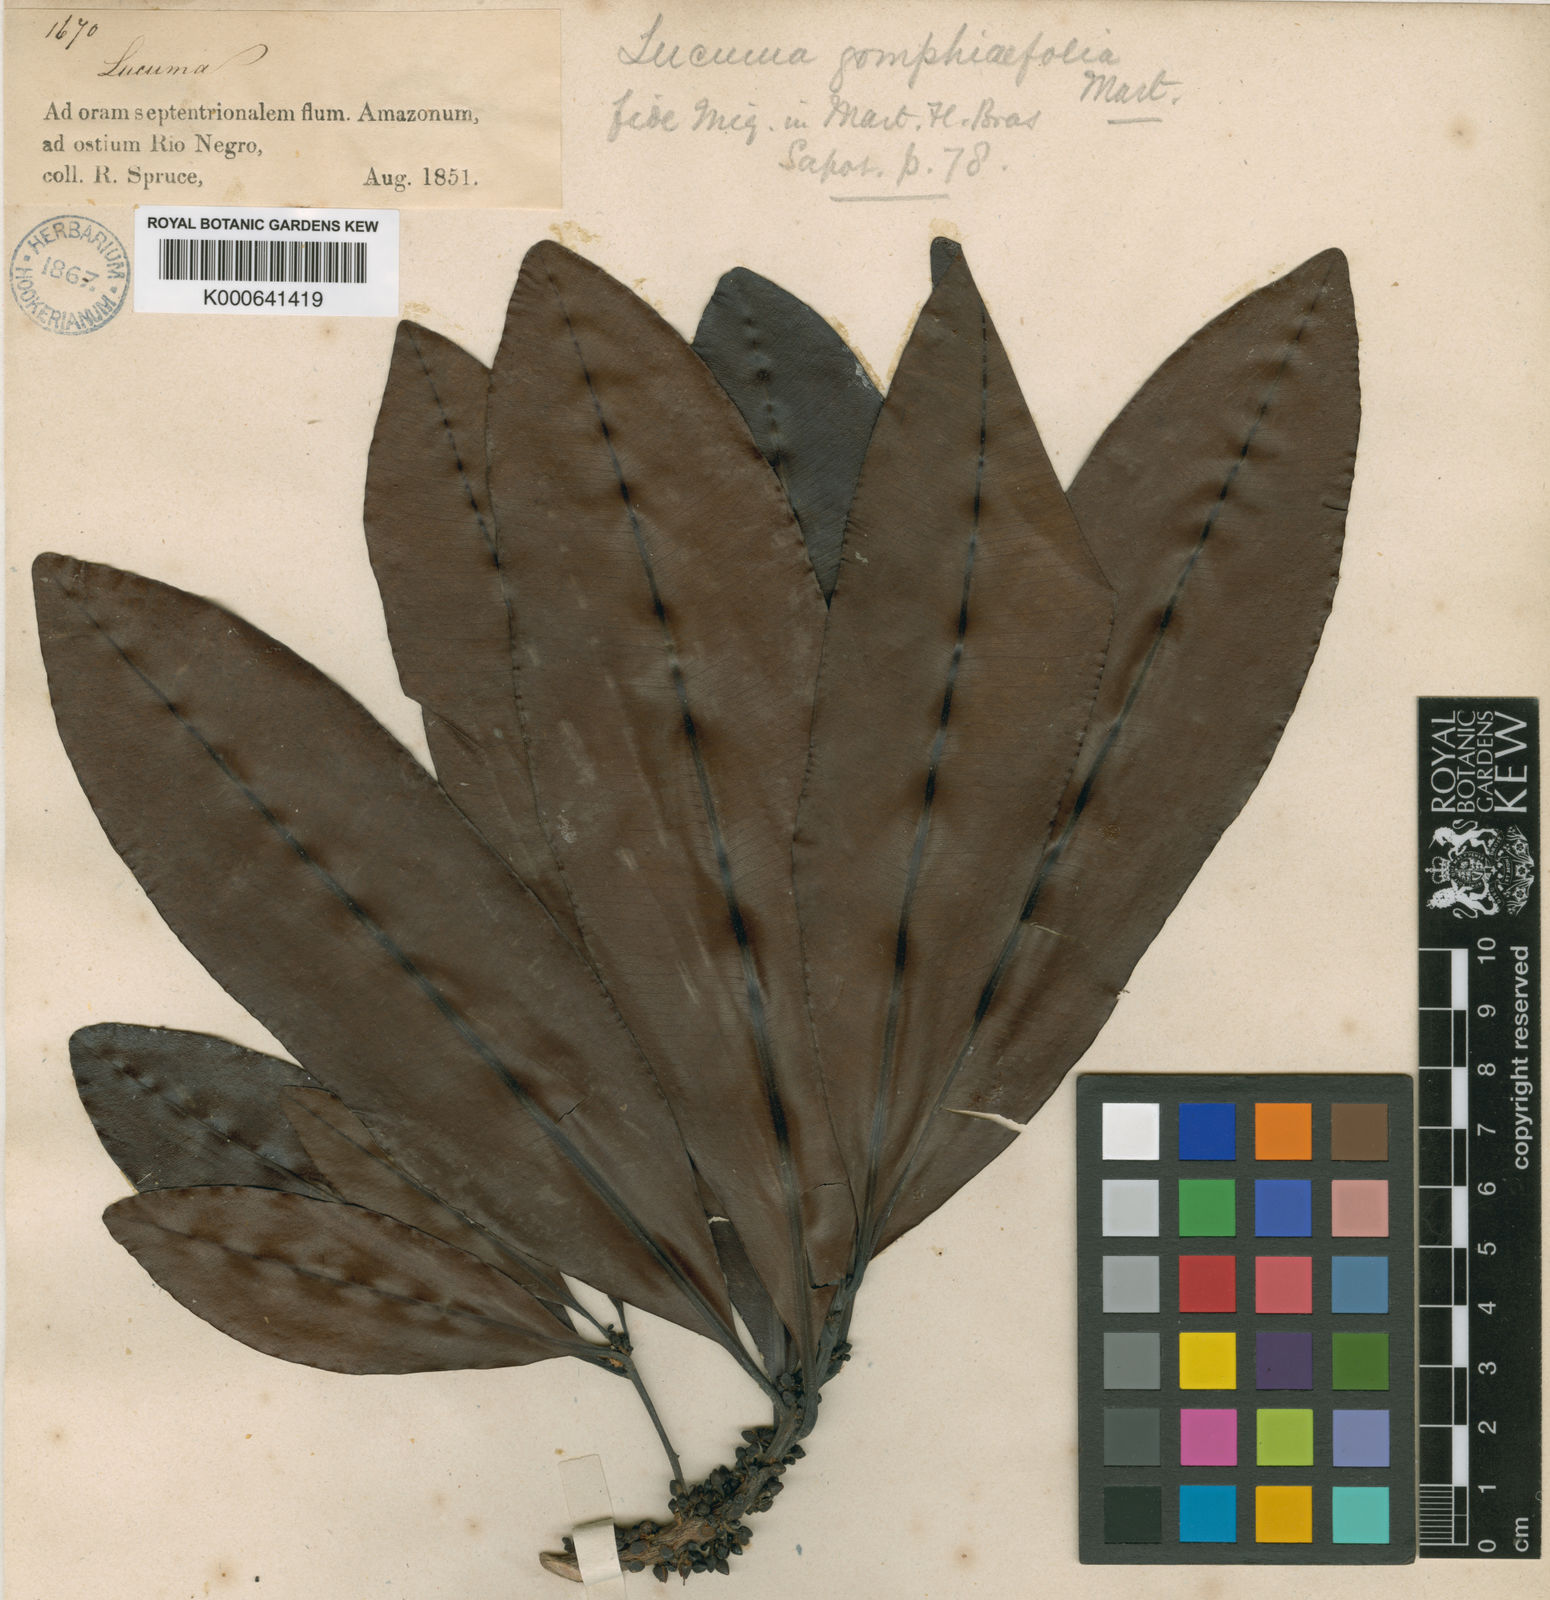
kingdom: Plantae
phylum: Tracheophyta
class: Magnoliopsida
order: Ericales
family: Sapotaceae
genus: Pouteria
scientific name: Pouteria gomphiifolia
